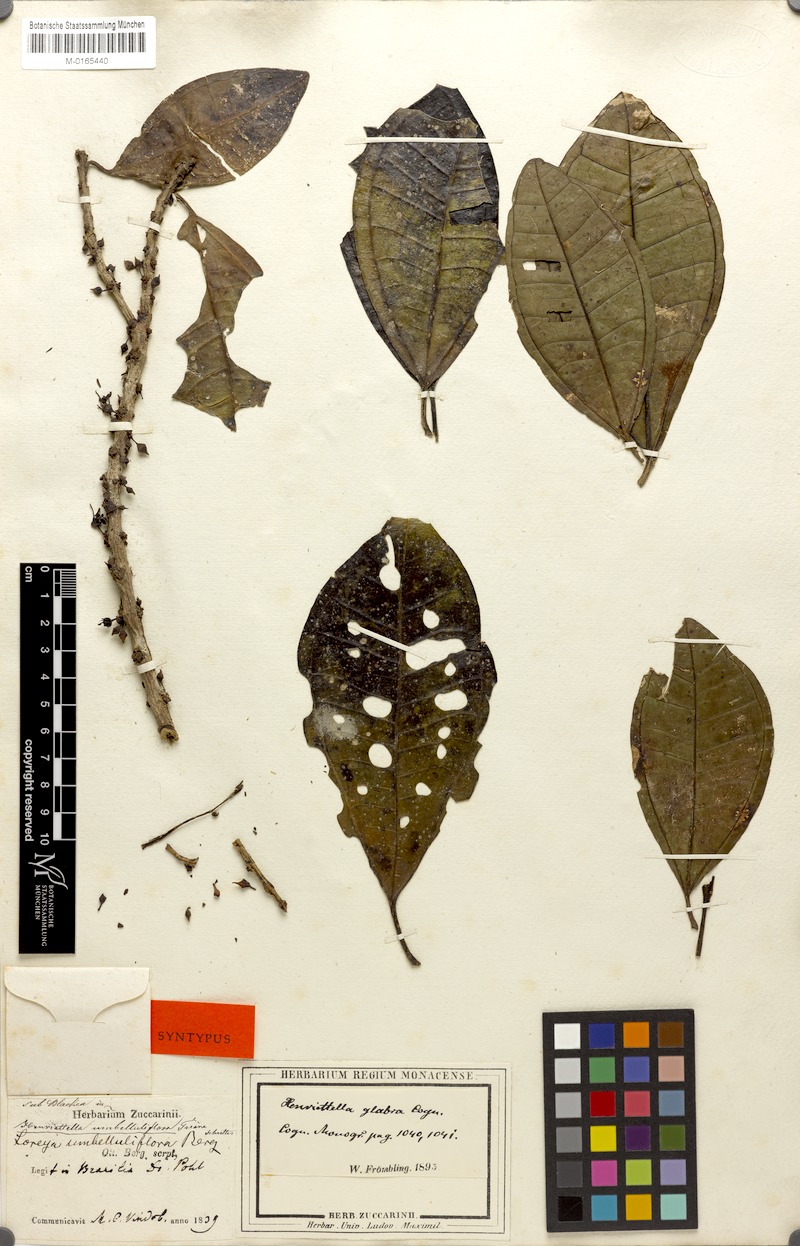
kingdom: Plantae
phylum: Tracheophyta
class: Magnoliopsida
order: Myrtales
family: Melastomataceae
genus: Henriettea
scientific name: Henriettea glabra
